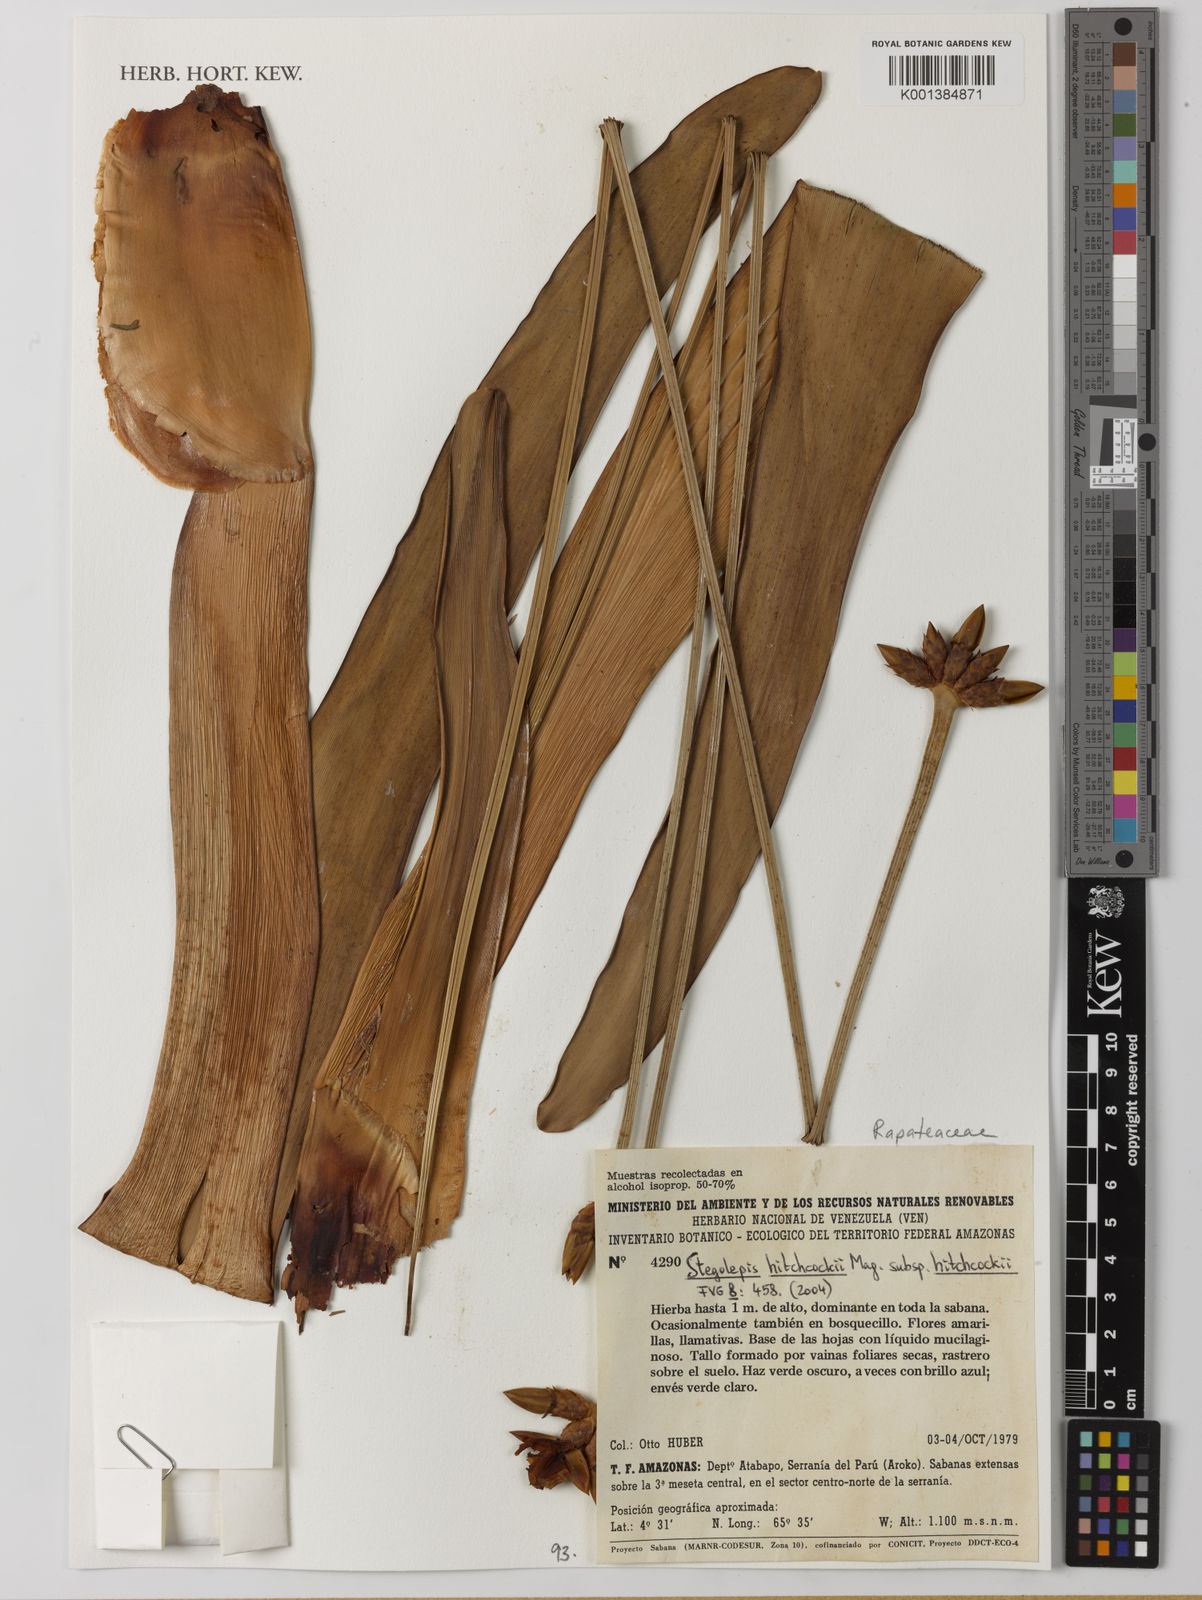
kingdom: Plantae
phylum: Tracheophyta
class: Liliopsida
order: Poales
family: Rapateaceae
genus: Stegolepis
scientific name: Stegolepis hitchcockii
